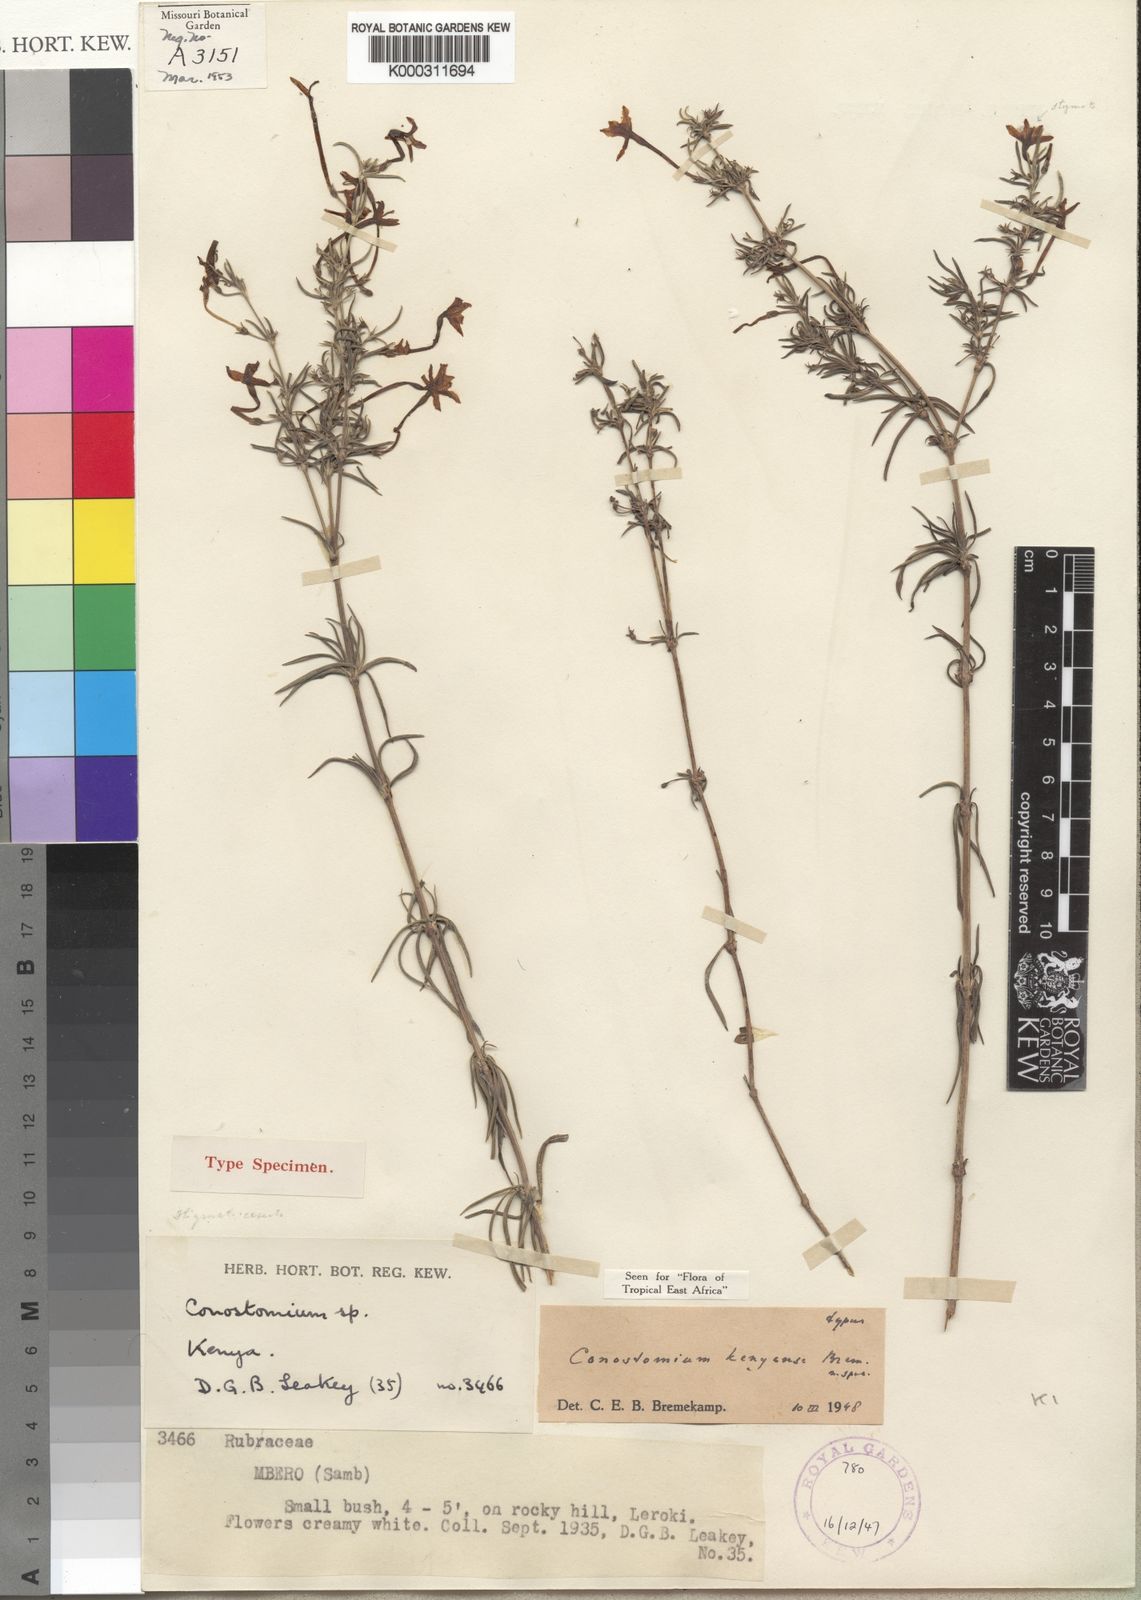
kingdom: Plantae
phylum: Tracheophyta
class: Magnoliopsida
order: Gentianales
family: Rubiaceae
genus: Conostomium
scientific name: Conostomium longitubum
